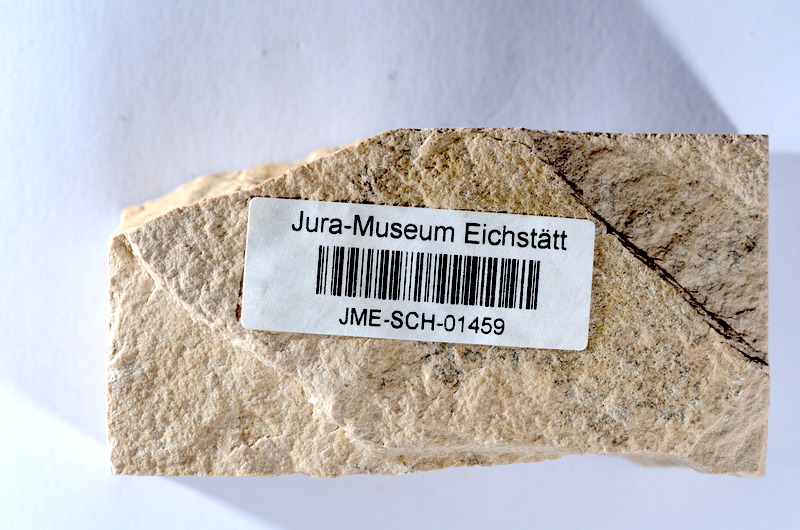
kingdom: Animalia
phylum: Chordata
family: Ascalaboidae
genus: Tharsis
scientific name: Tharsis dubius
